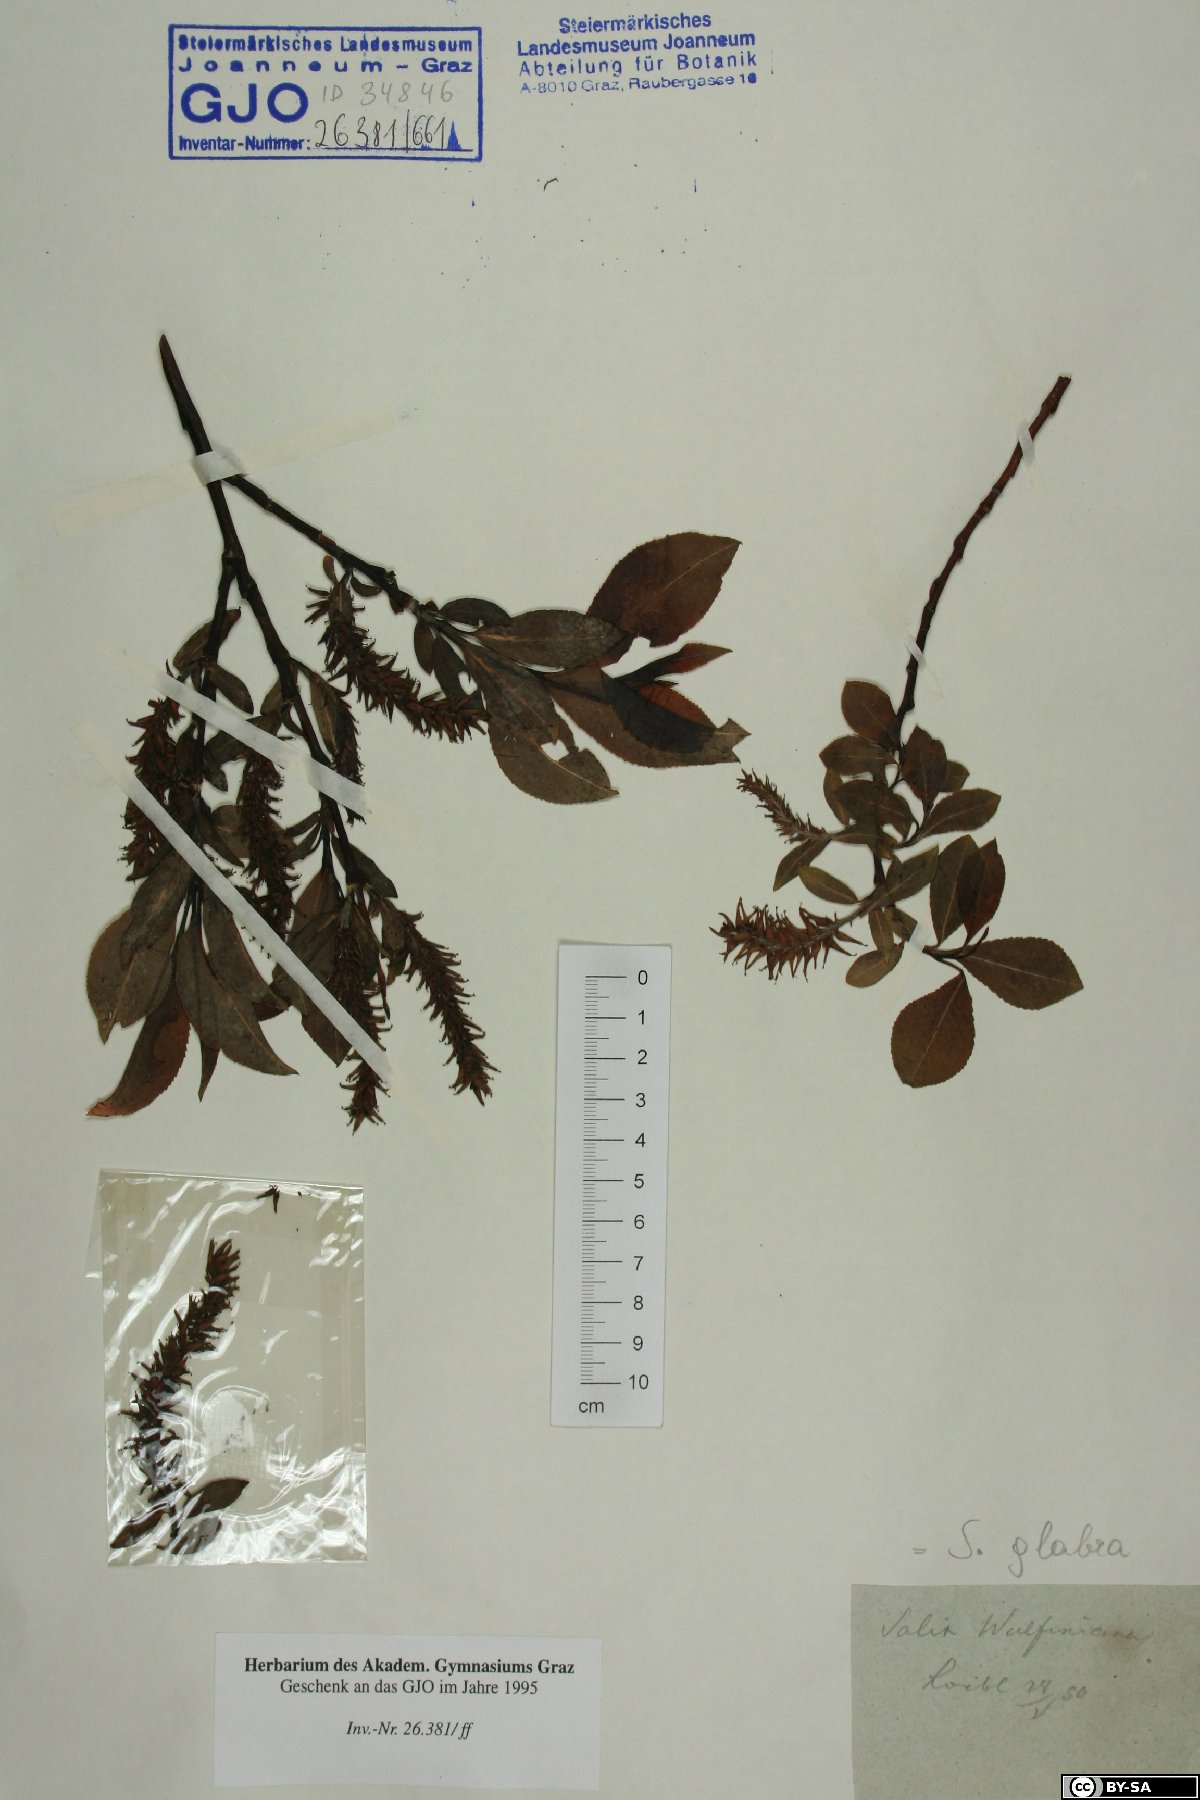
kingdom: Plantae
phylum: Tracheophyta
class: Magnoliopsida
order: Malpighiales
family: Salicaceae
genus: Salix
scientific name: Salix glabra
